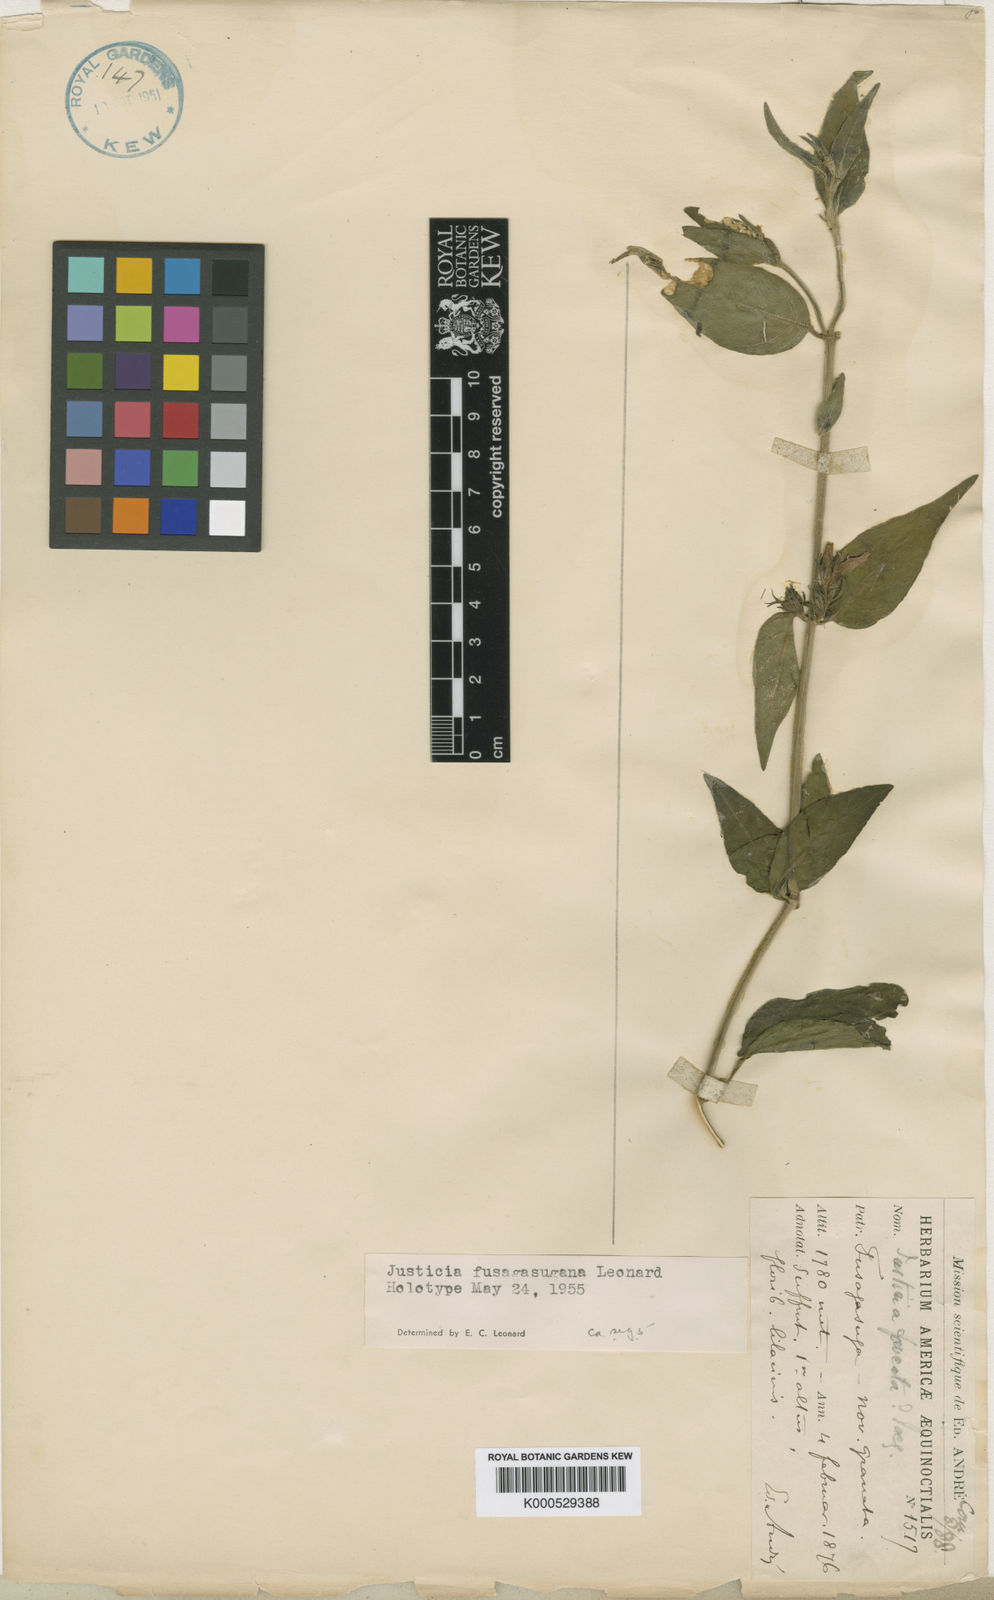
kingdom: Plantae
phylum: Tracheophyta
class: Magnoliopsida
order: Lamiales
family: Acanthaceae
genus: Justicia
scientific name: Justicia fusagasugana
